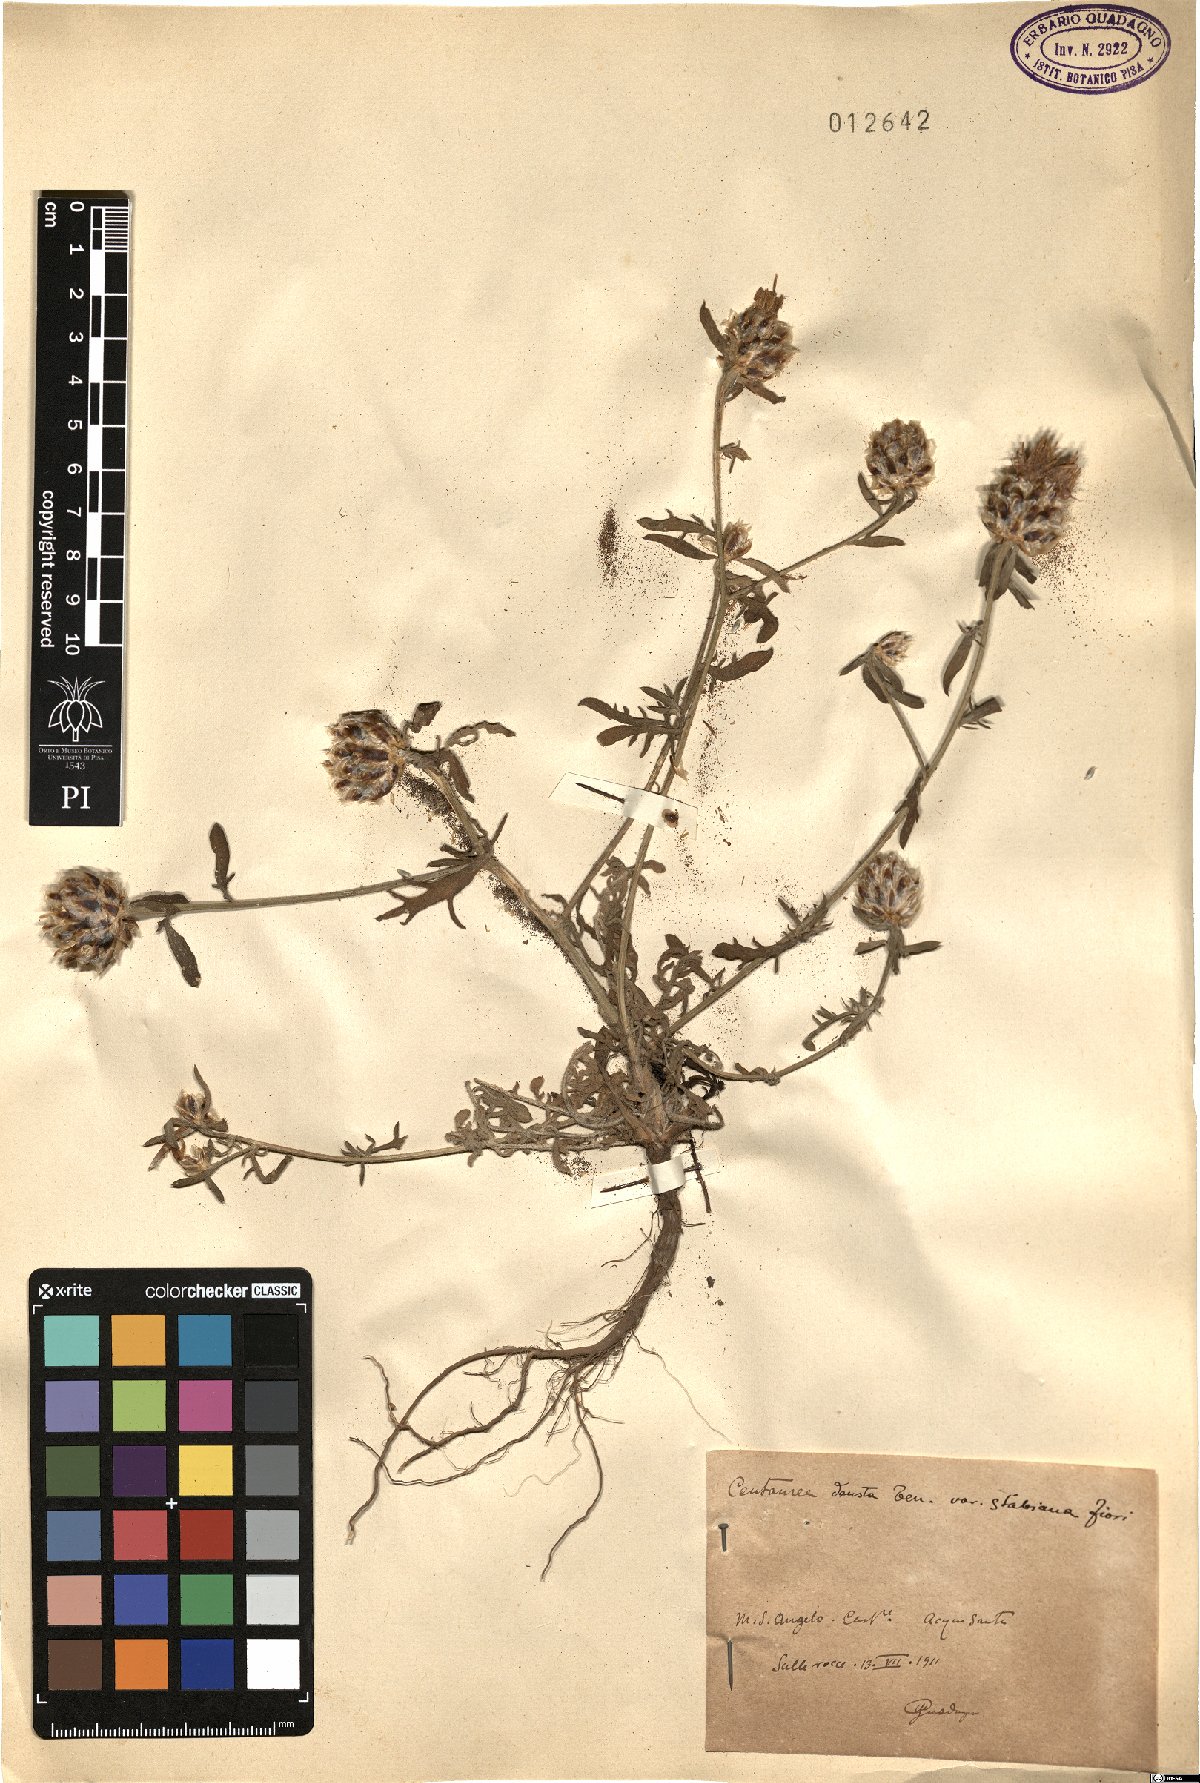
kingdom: Plantae
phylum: Tracheophyta
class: Magnoliopsida
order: Asterales
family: Asteraceae
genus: Centaurea
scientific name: Centaurea deusta
